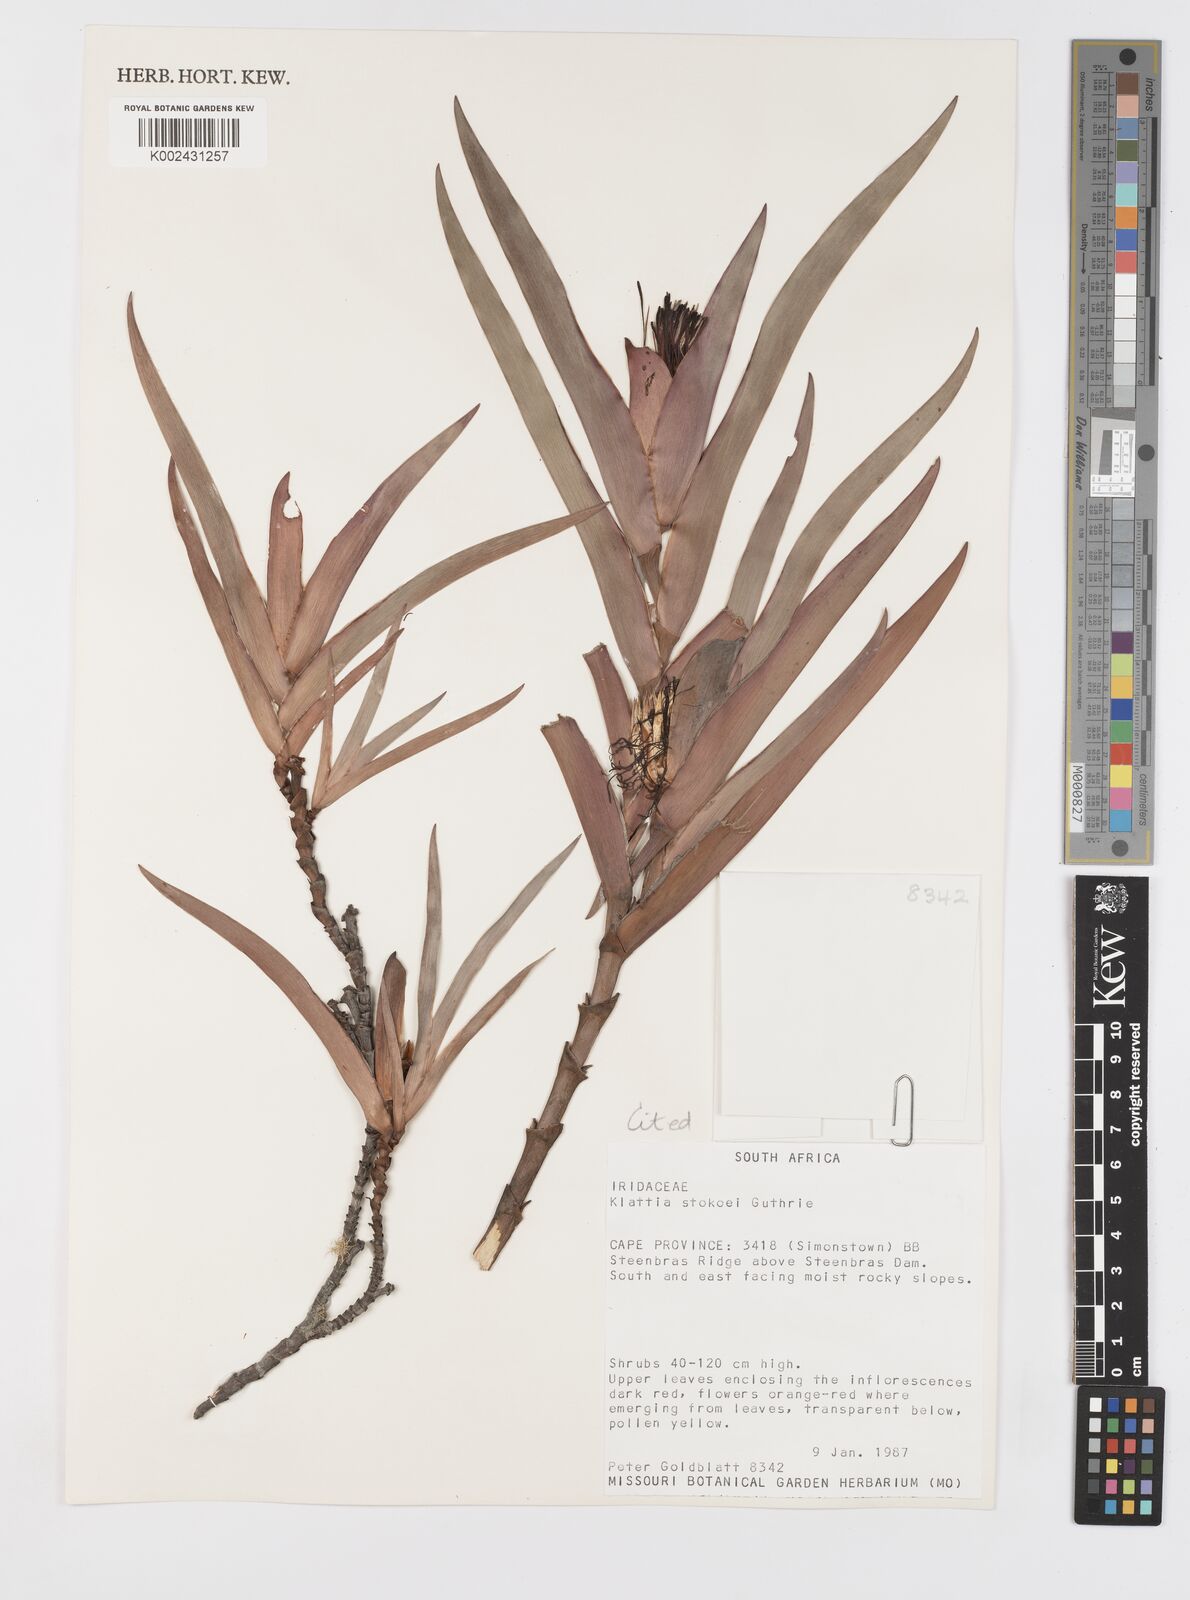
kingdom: Plantae
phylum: Tracheophyta
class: Liliopsida
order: Asparagales
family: Iridaceae
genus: Klattia
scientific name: Klattia stokoei
